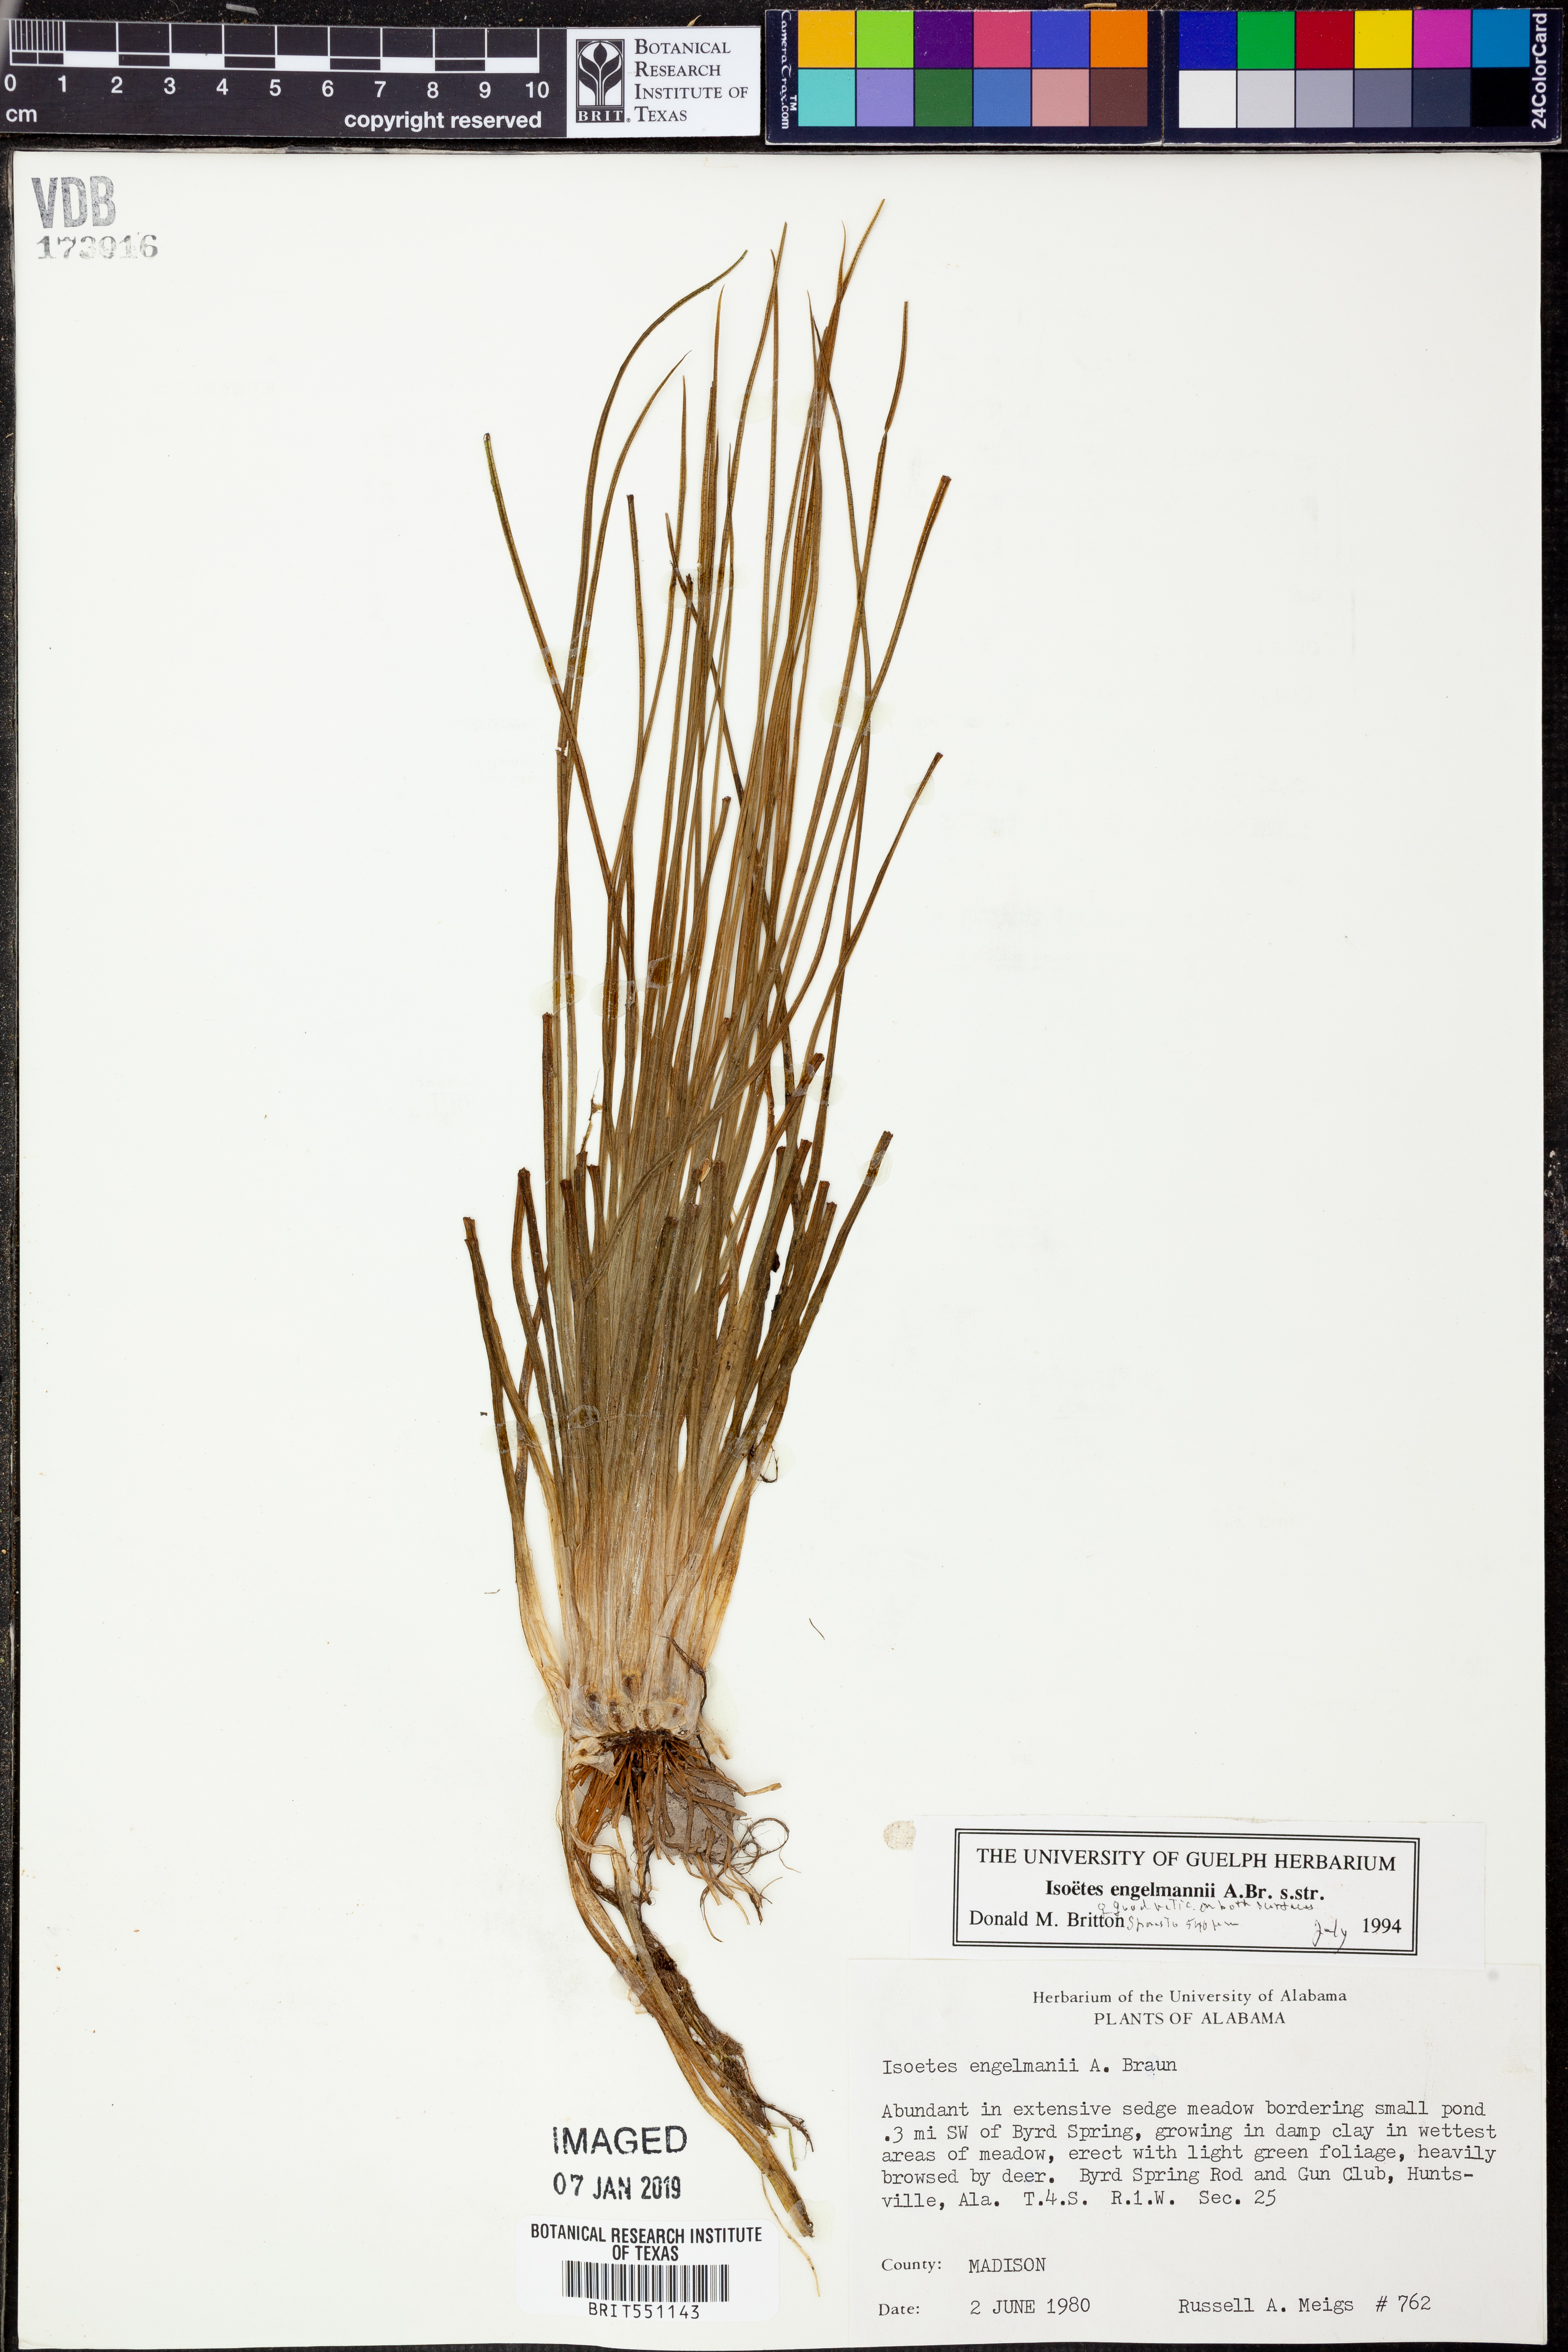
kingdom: Plantae
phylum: Tracheophyta
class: Lycopodiopsida
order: Isoetales
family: Isoetaceae
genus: Isoetes
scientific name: Isoetes engelmannii
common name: Engelmann's quillwort
